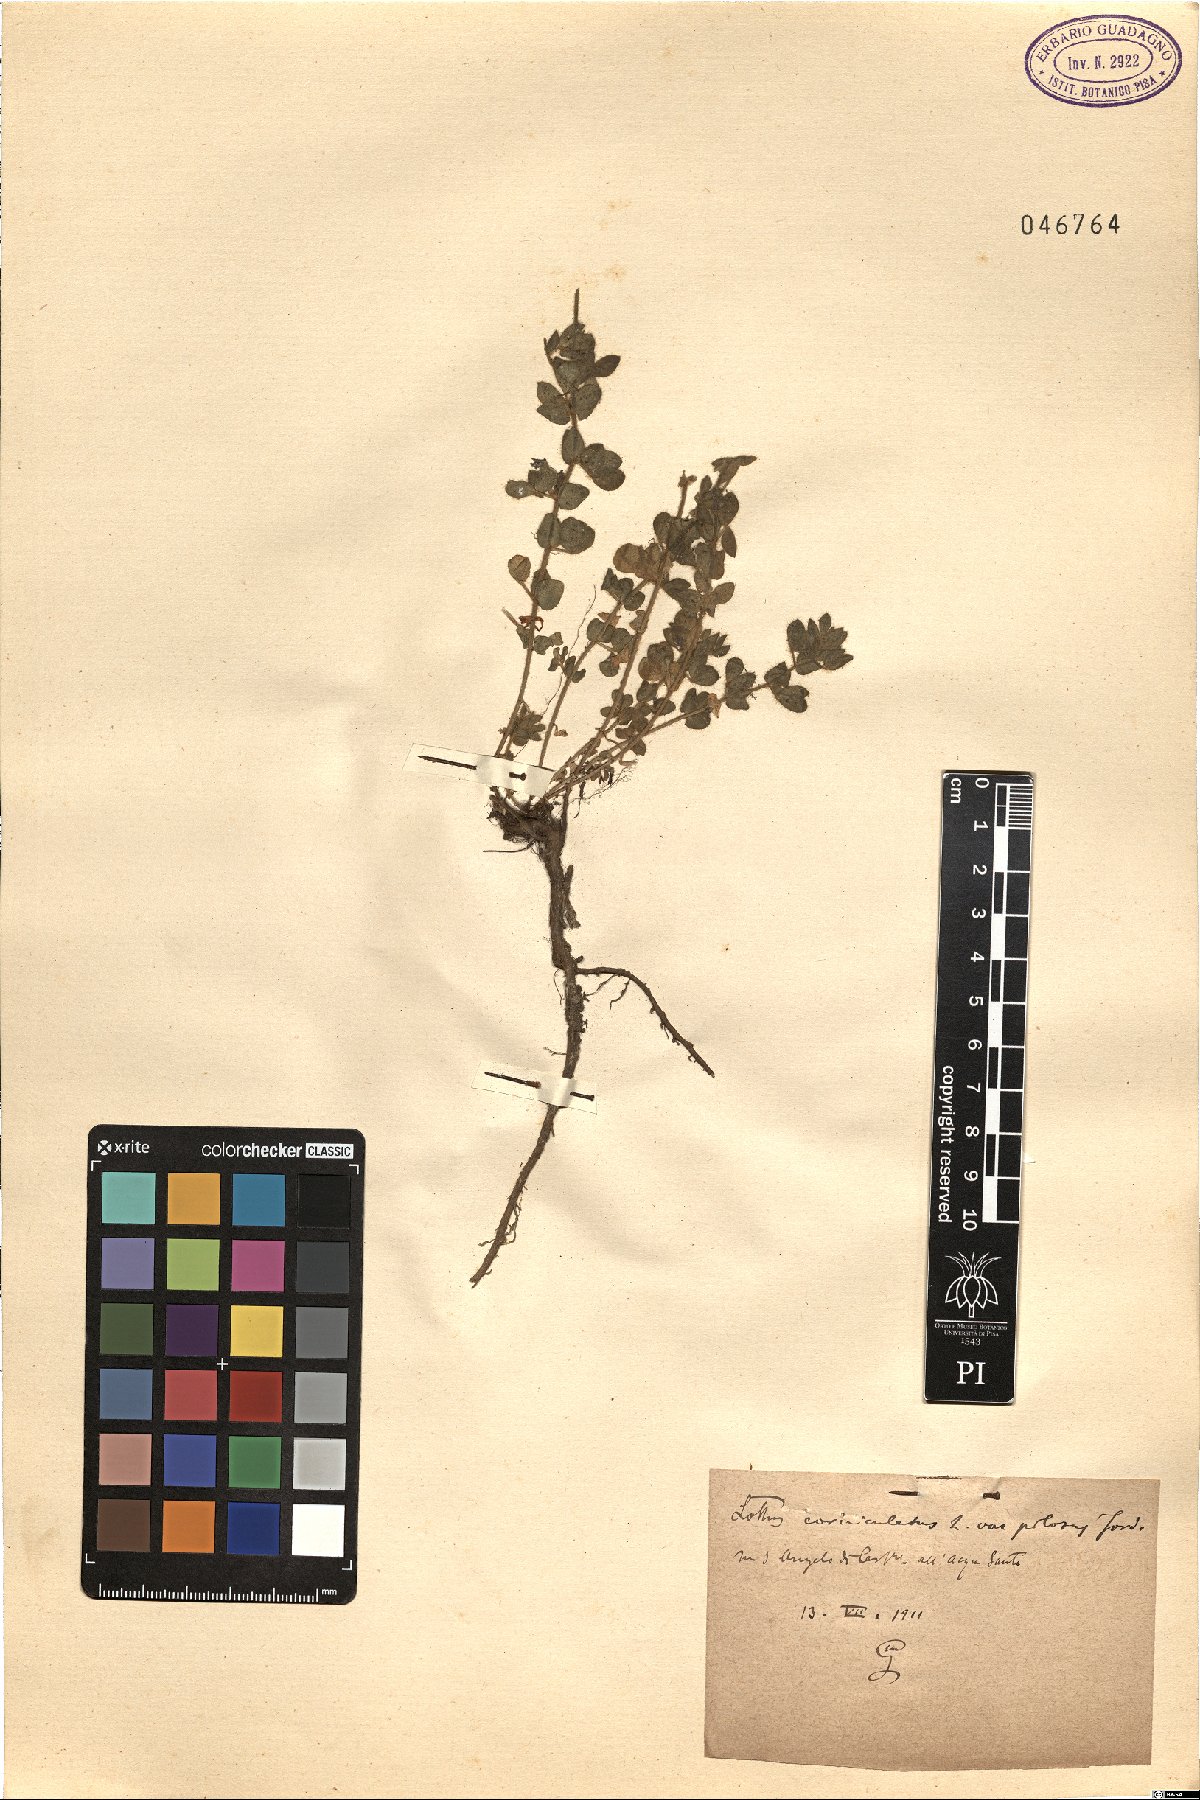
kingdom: Plantae
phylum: Tracheophyta
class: Magnoliopsida
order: Fabales
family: Fabaceae
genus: Lotus
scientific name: Lotus corniculatus
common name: Common bird's-foot-trefoil
